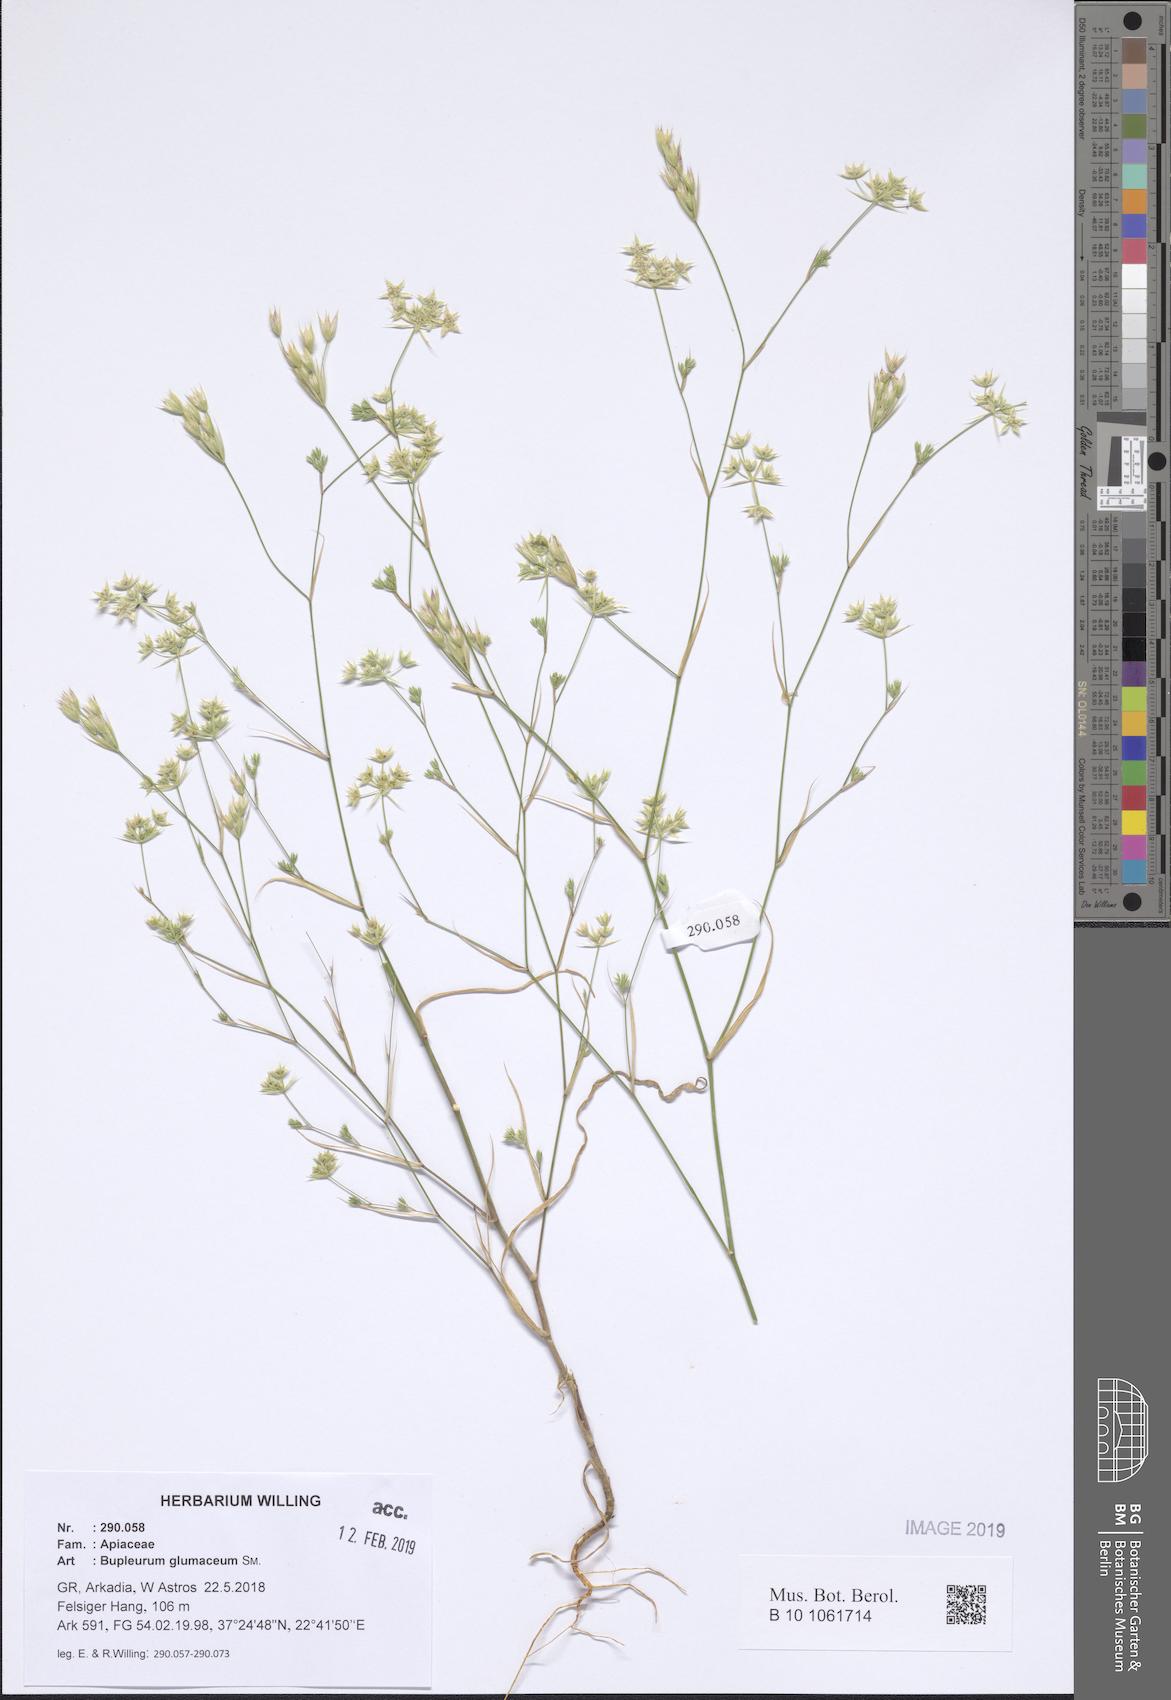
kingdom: Plantae
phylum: Tracheophyta
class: Magnoliopsida
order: Apiales
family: Apiaceae
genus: Bupleurum
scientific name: Bupleurum glumaceum
